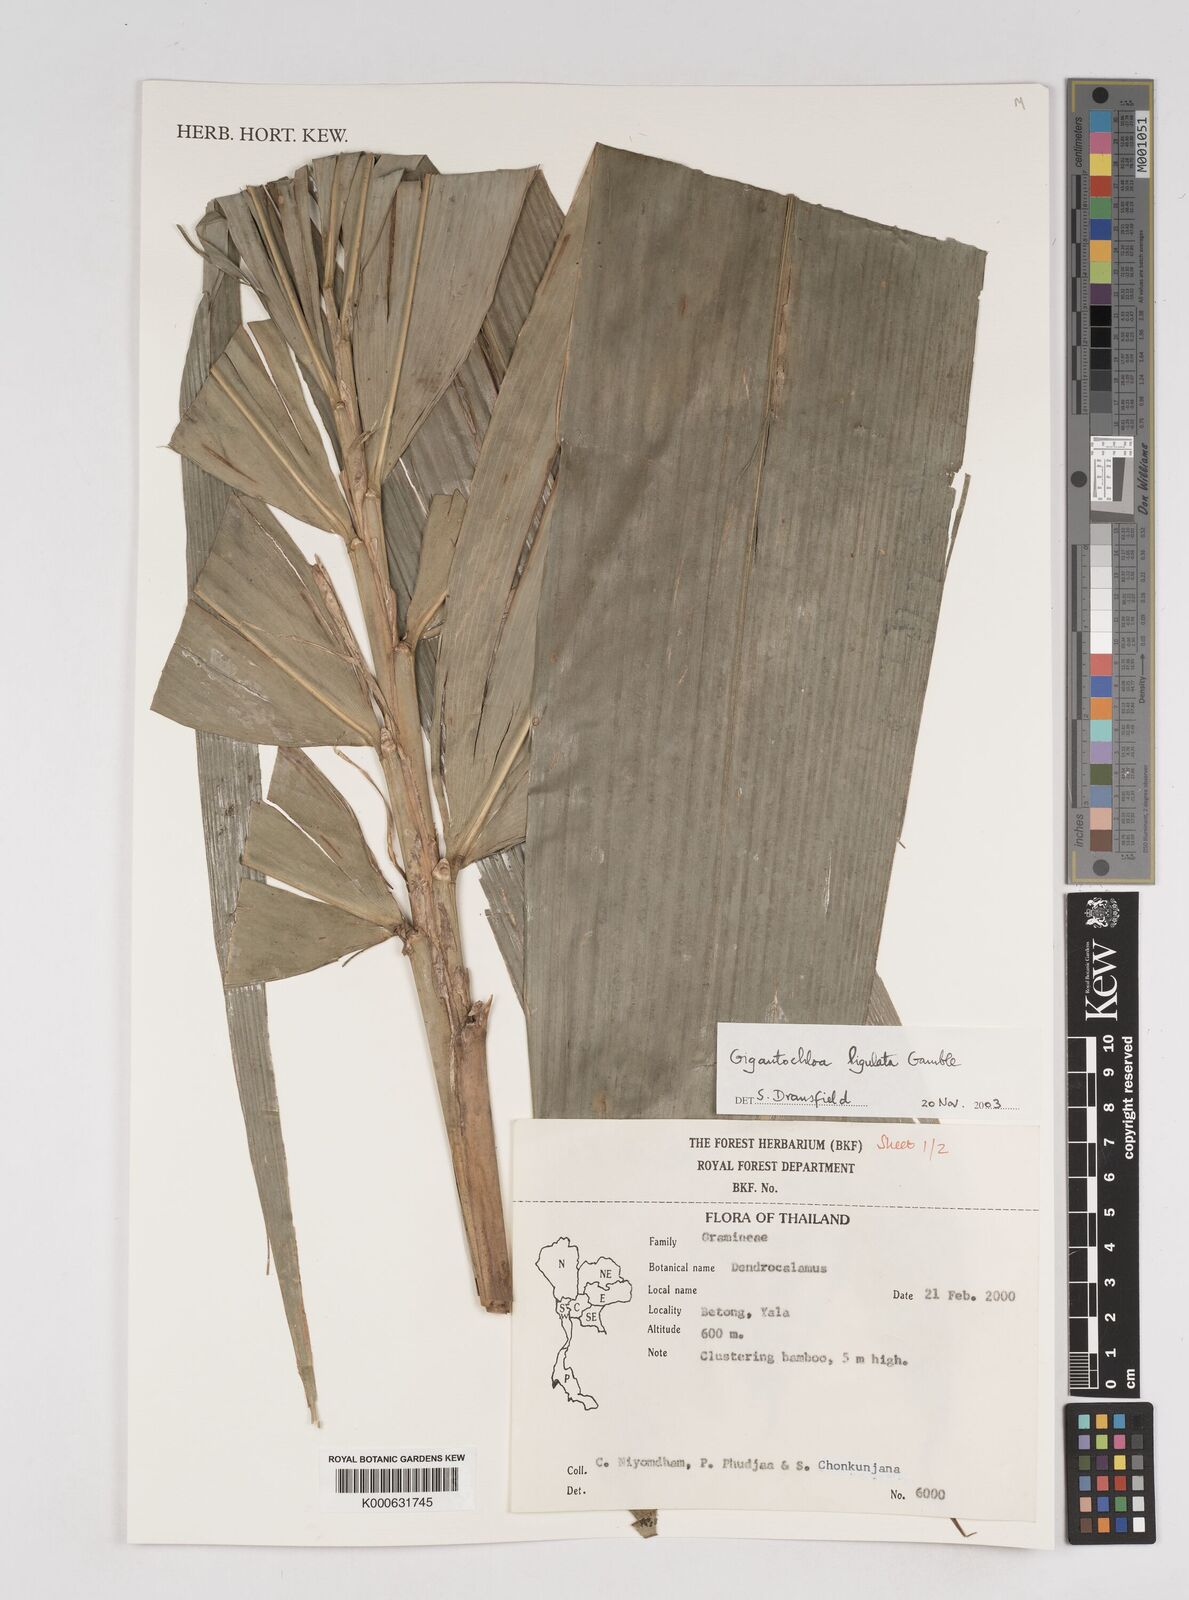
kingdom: Plantae
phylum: Tracheophyta
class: Liliopsida
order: Poales
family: Poaceae
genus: Gigantochloa
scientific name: Gigantochloa ligulata
